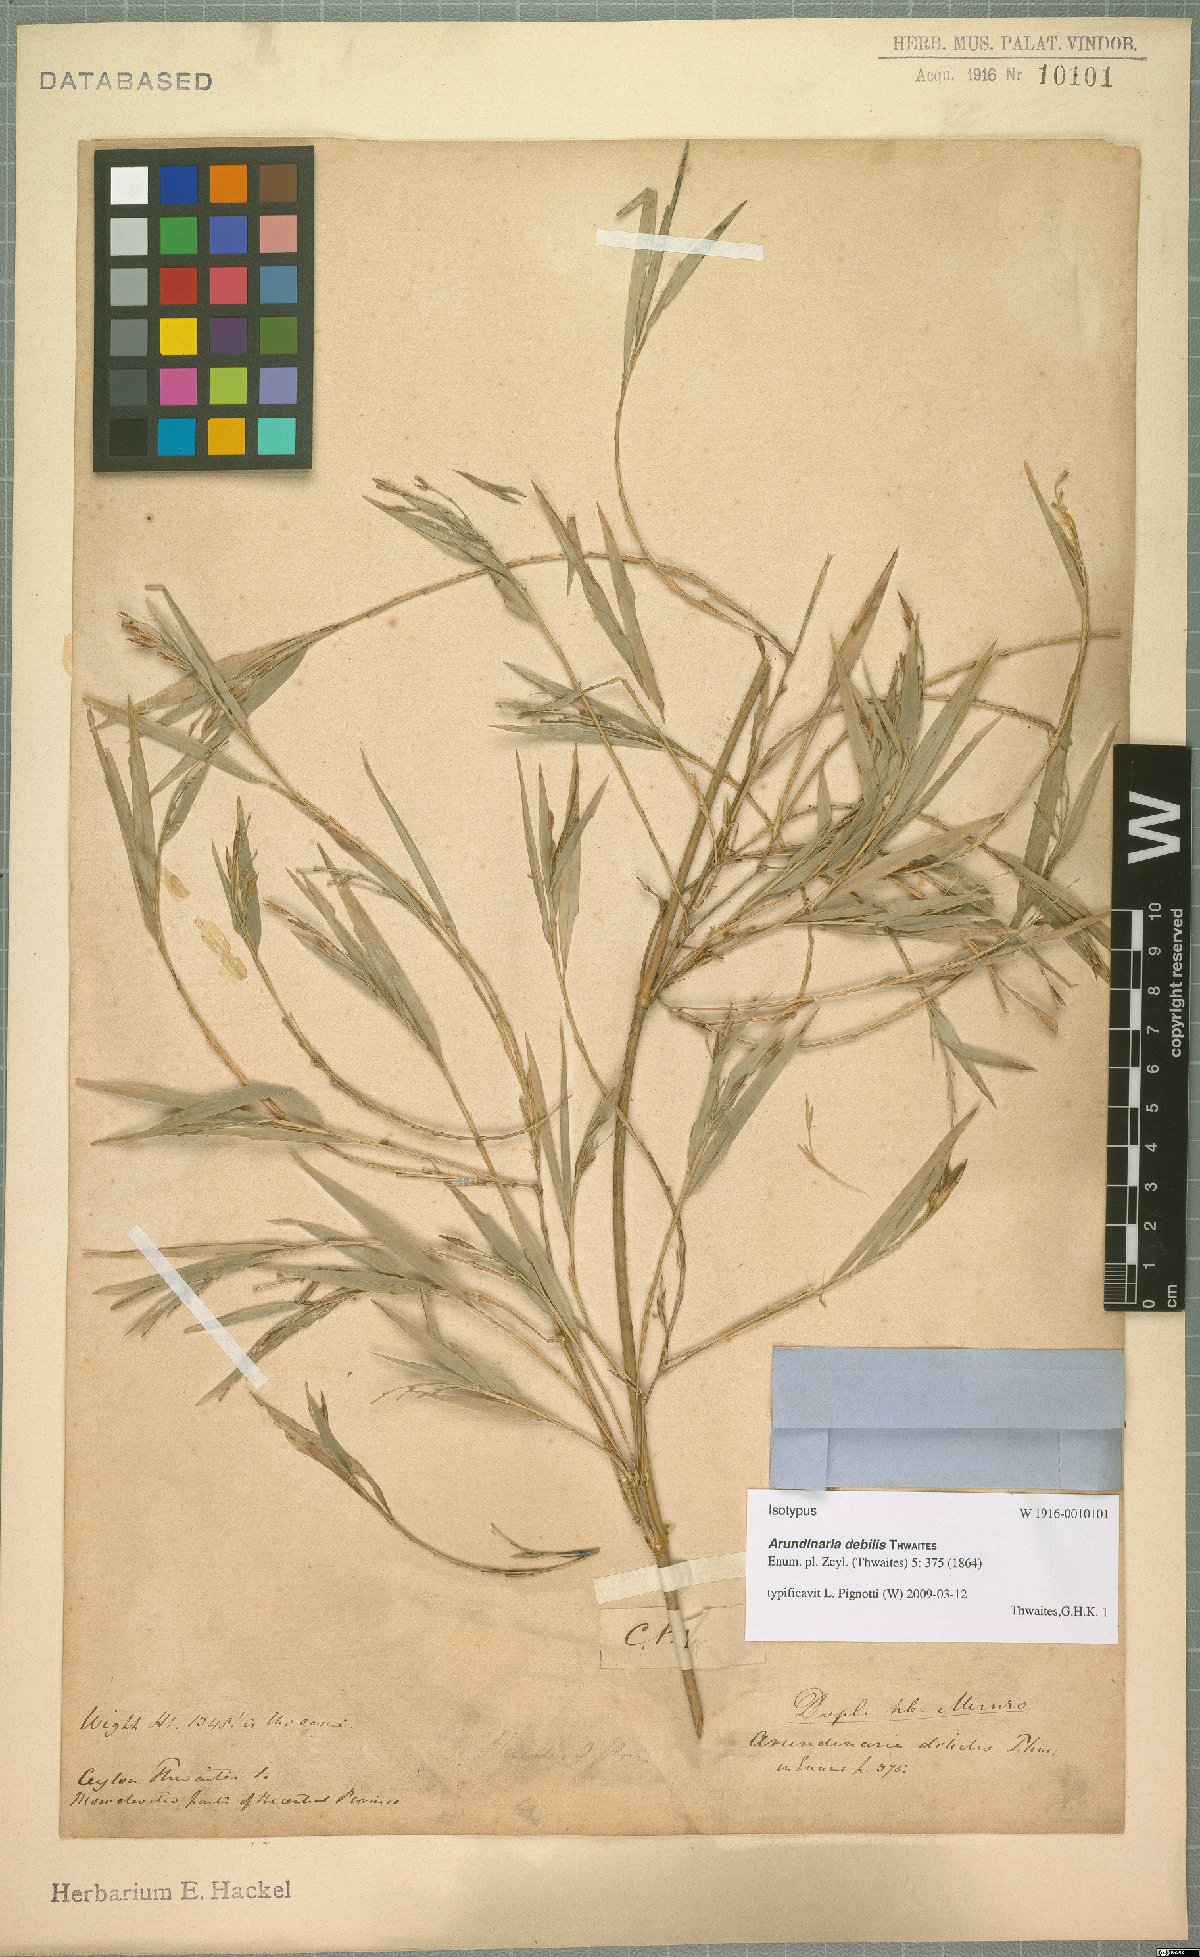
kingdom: Plantae
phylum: Tracheophyta
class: Liliopsida
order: Poales
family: Poaceae
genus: Kuruna
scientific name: Kuruna debilis
